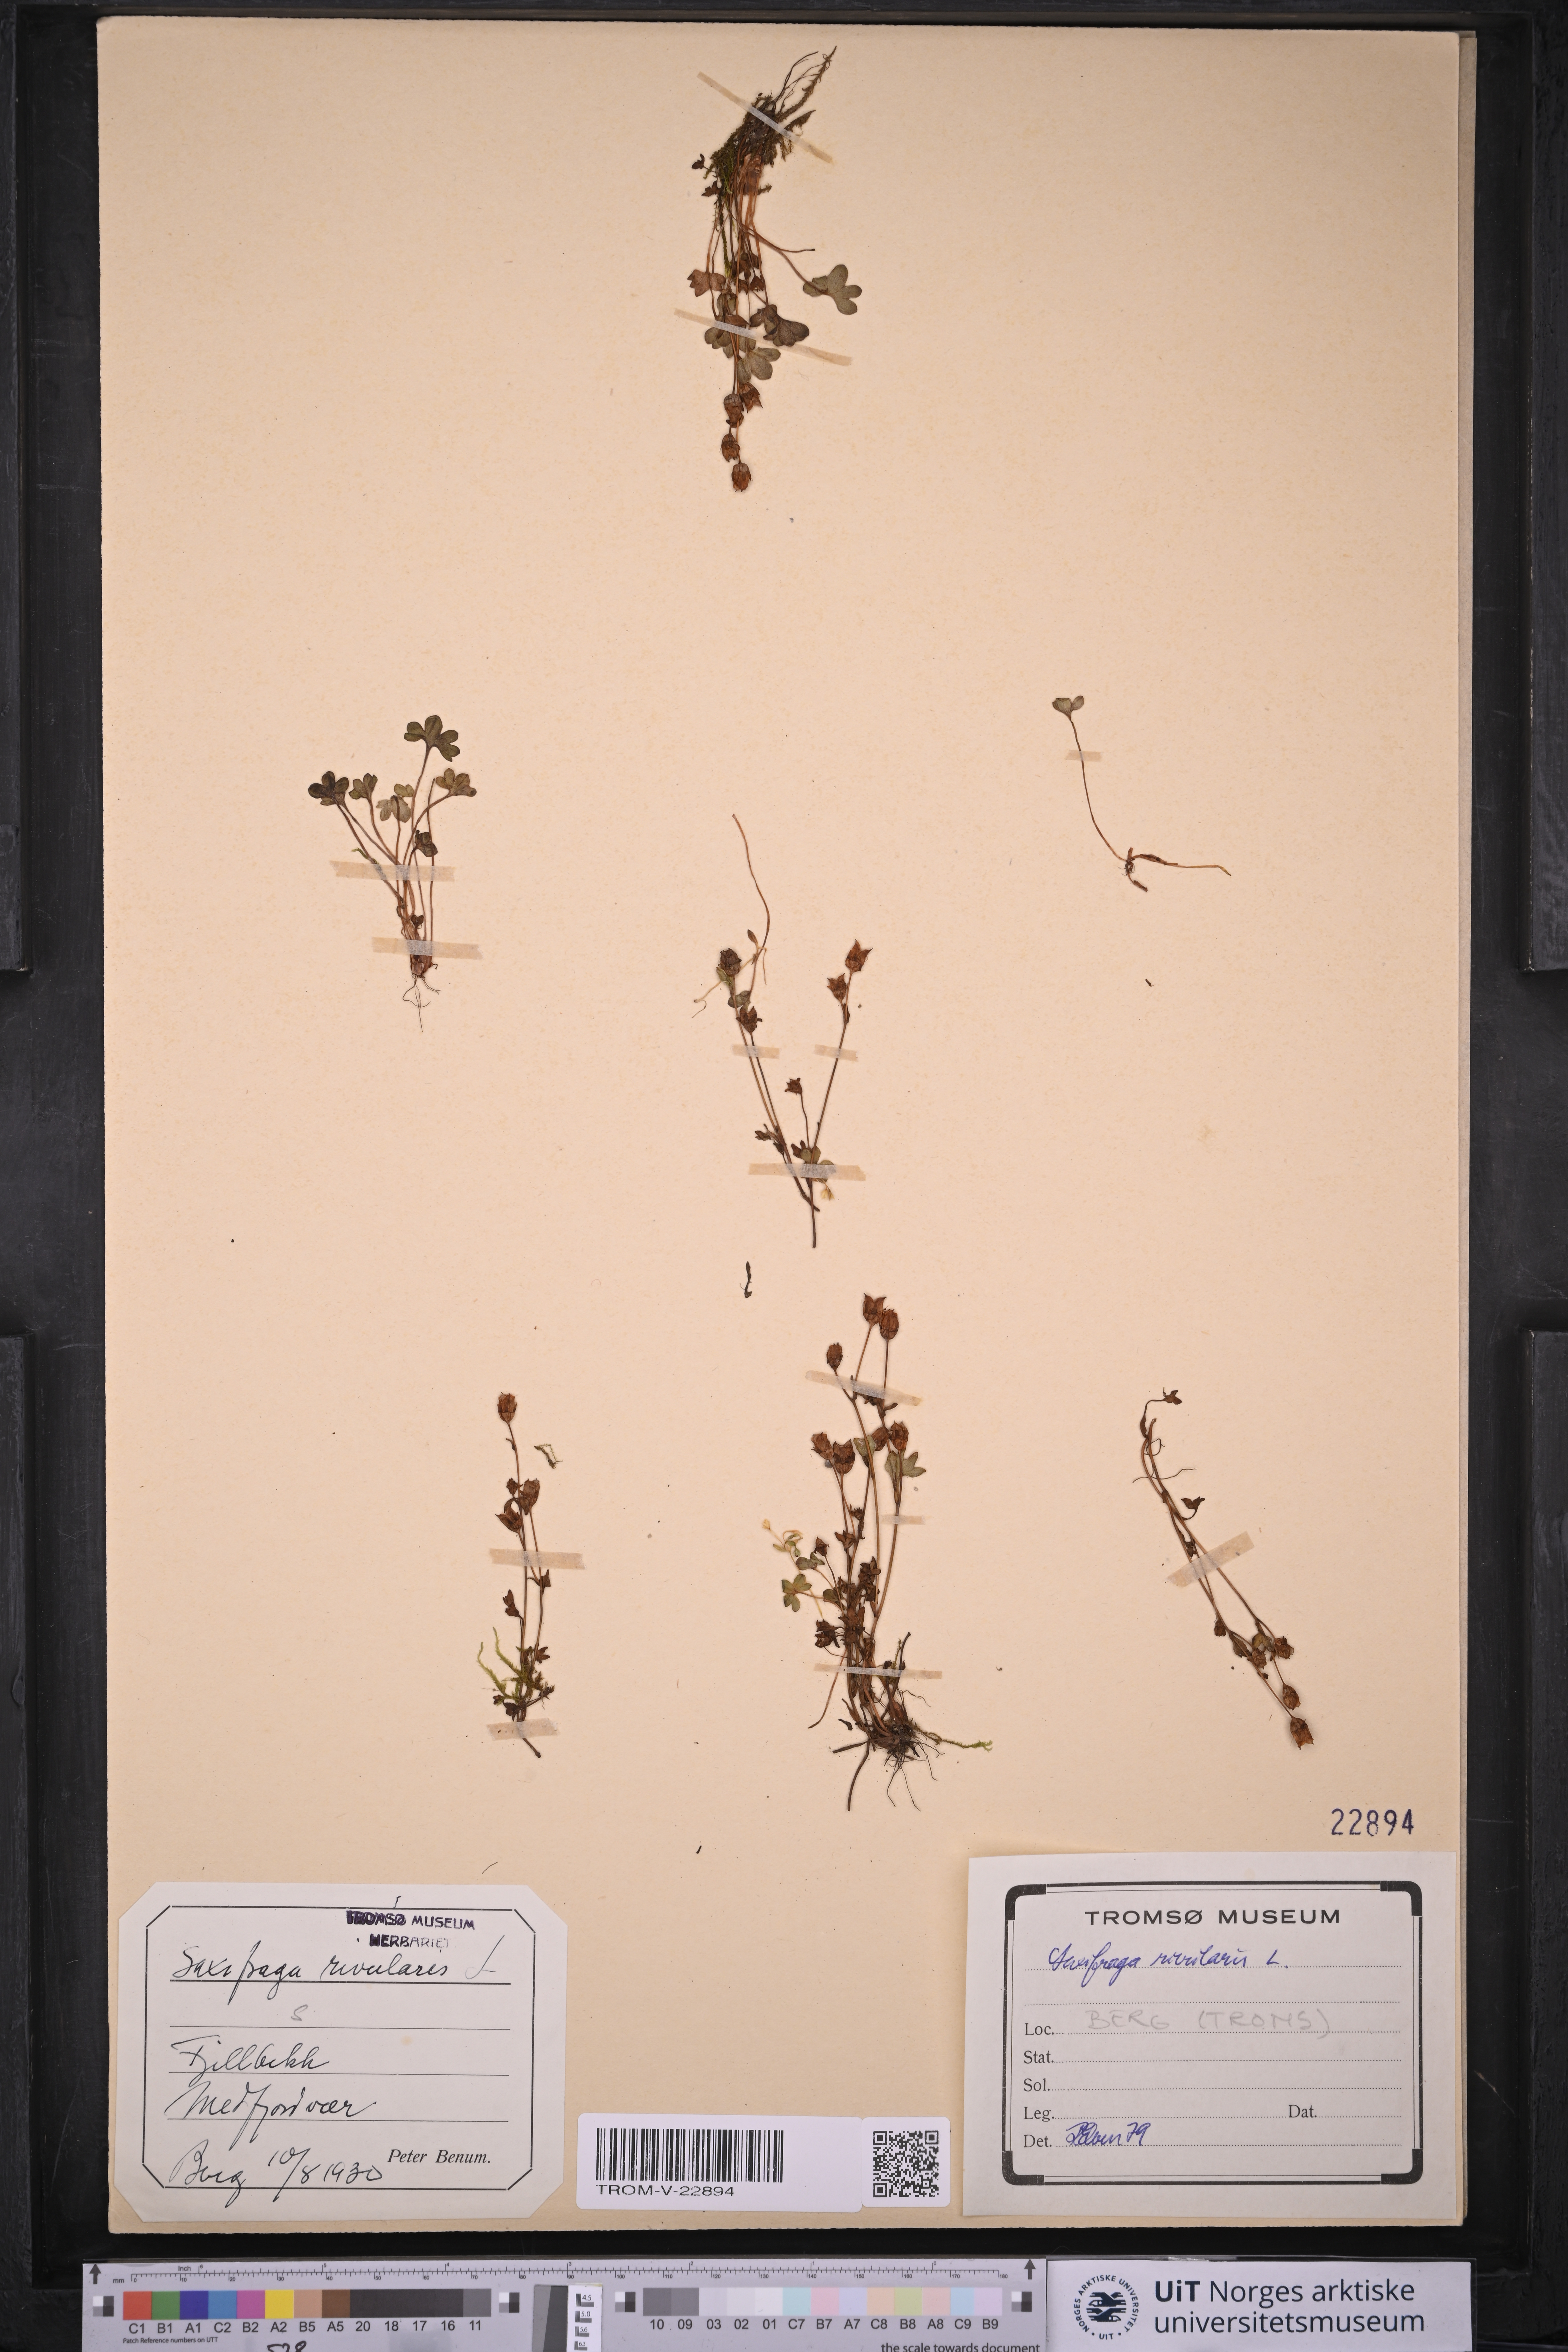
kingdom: Plantae
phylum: Tracheophyta
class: Magnoliopsida
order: Saxifragales
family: Saxifragaceae
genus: Saxifraga
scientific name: Saxifraga rivularis
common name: Highland saxifrage
